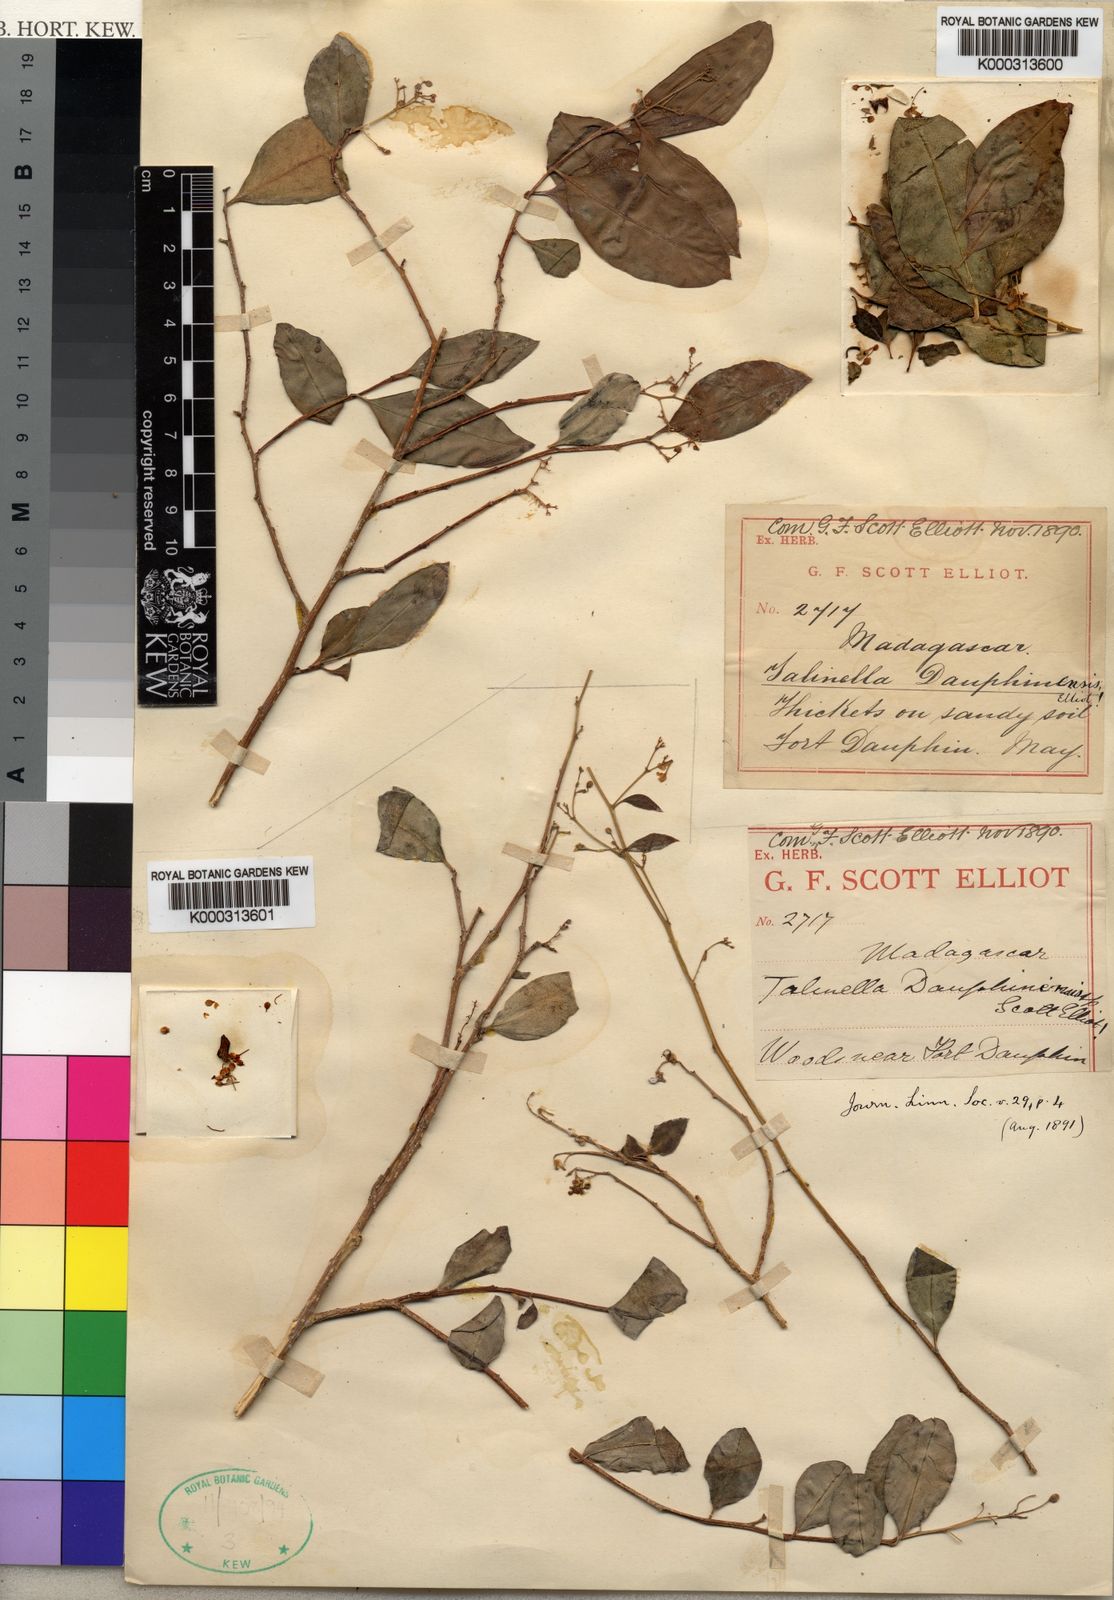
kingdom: Plantae
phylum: Tracheophyta
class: Magnoliopsida
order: Caryophyllales
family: Talinaceae
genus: Talinella
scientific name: Talinella dauphinensis
